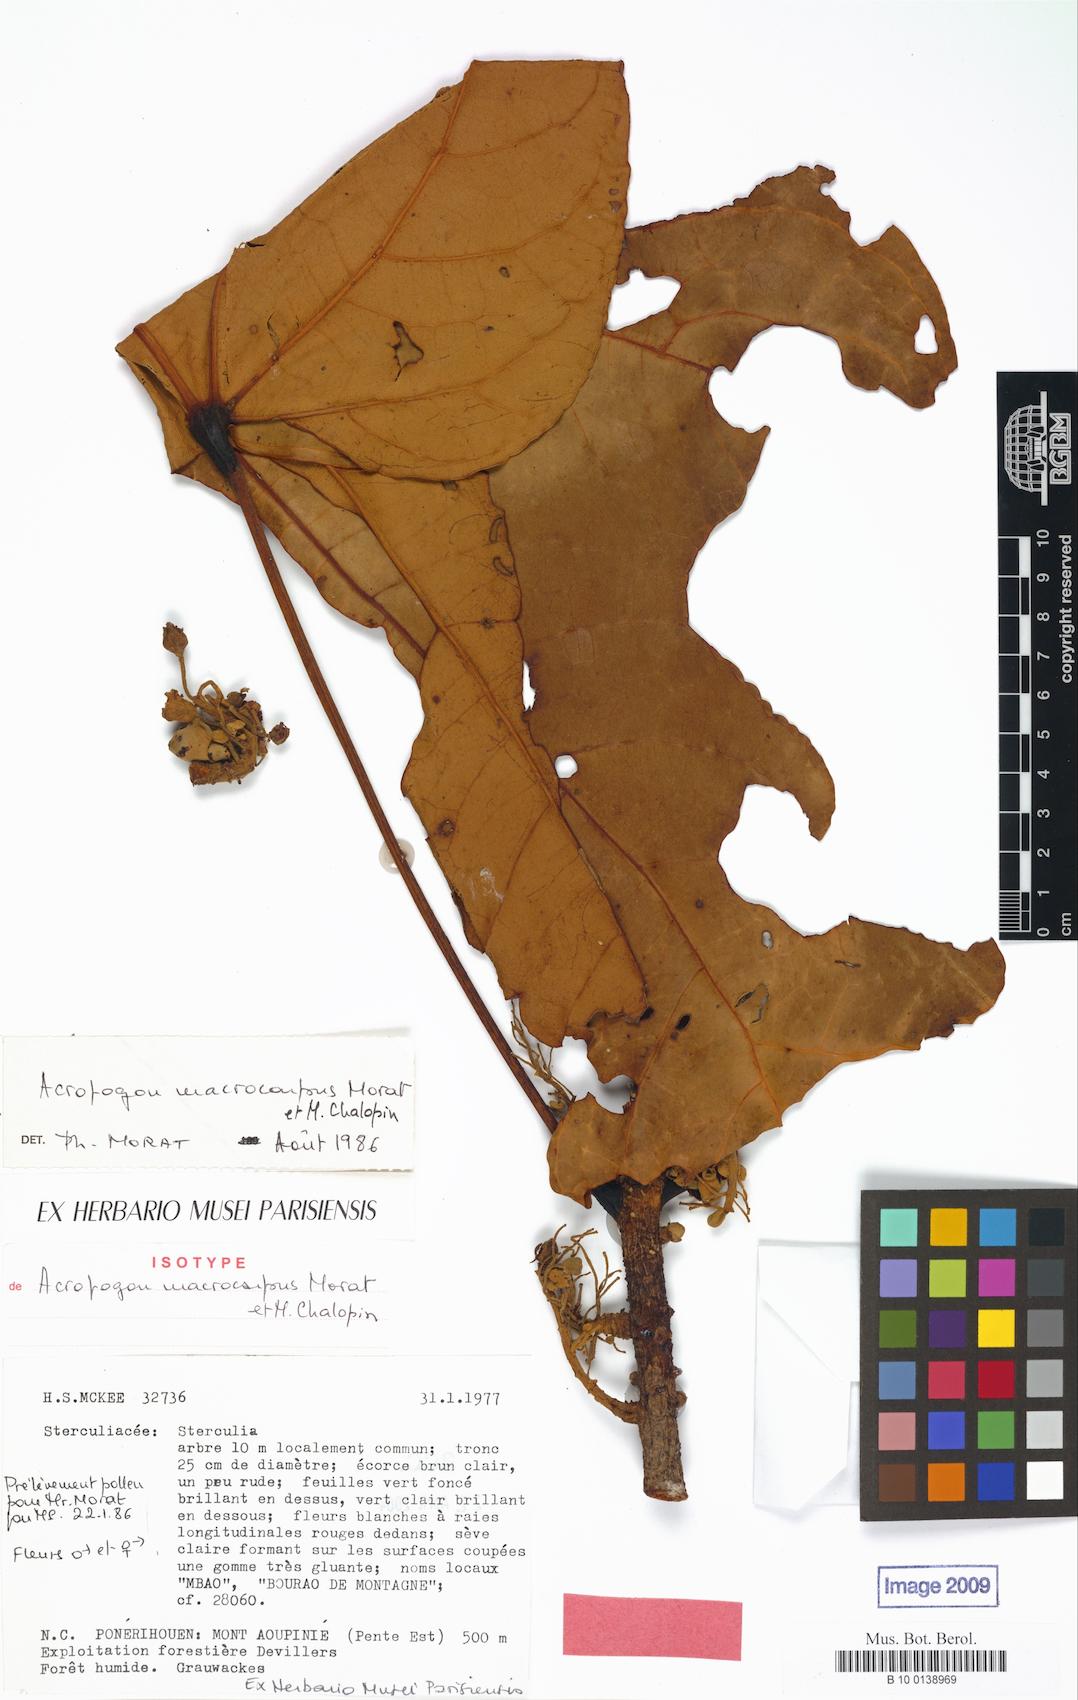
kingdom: Plantae
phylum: Tracheophyta
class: Magnoliopsida
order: Malvales
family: Malvaceae
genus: Acropogon
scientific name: Acropogon macrocarpus
